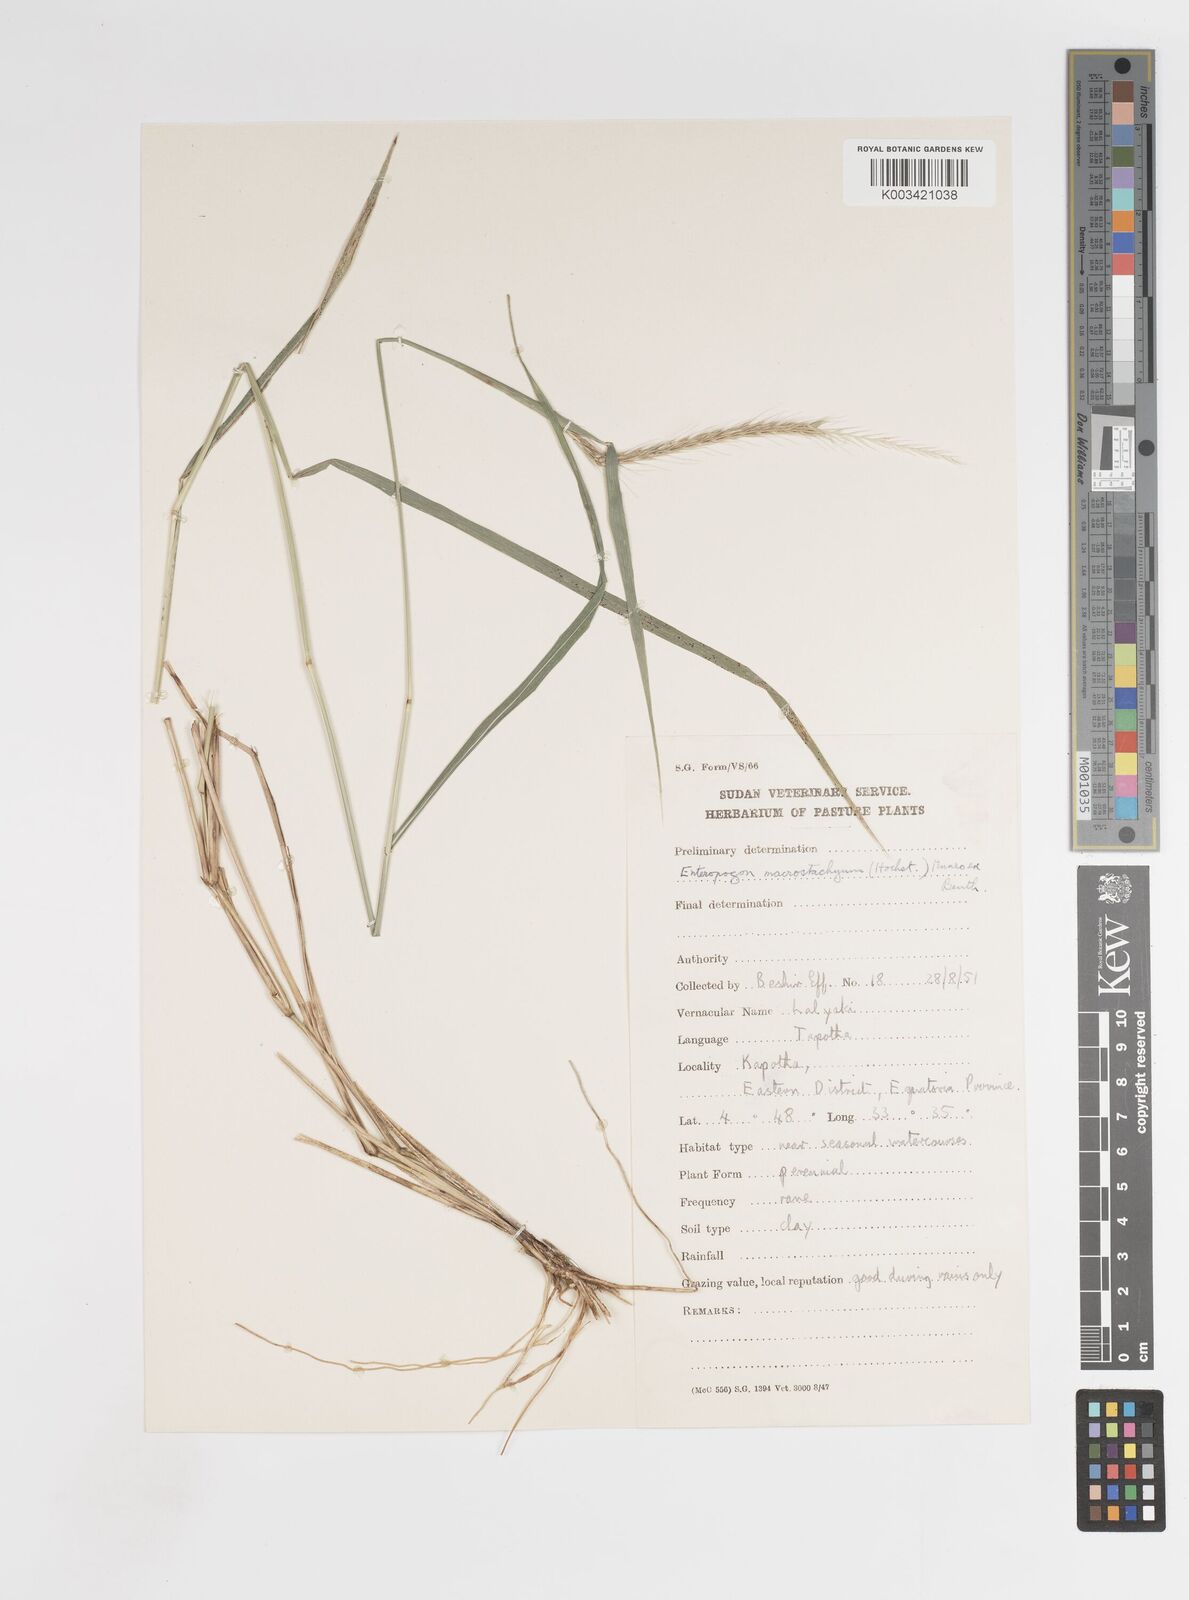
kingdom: Plantae
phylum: Tracheophyta
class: Liliopsida
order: Poales
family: Poaceae
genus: Enteropogon
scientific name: Enteropogon macrostachyus
